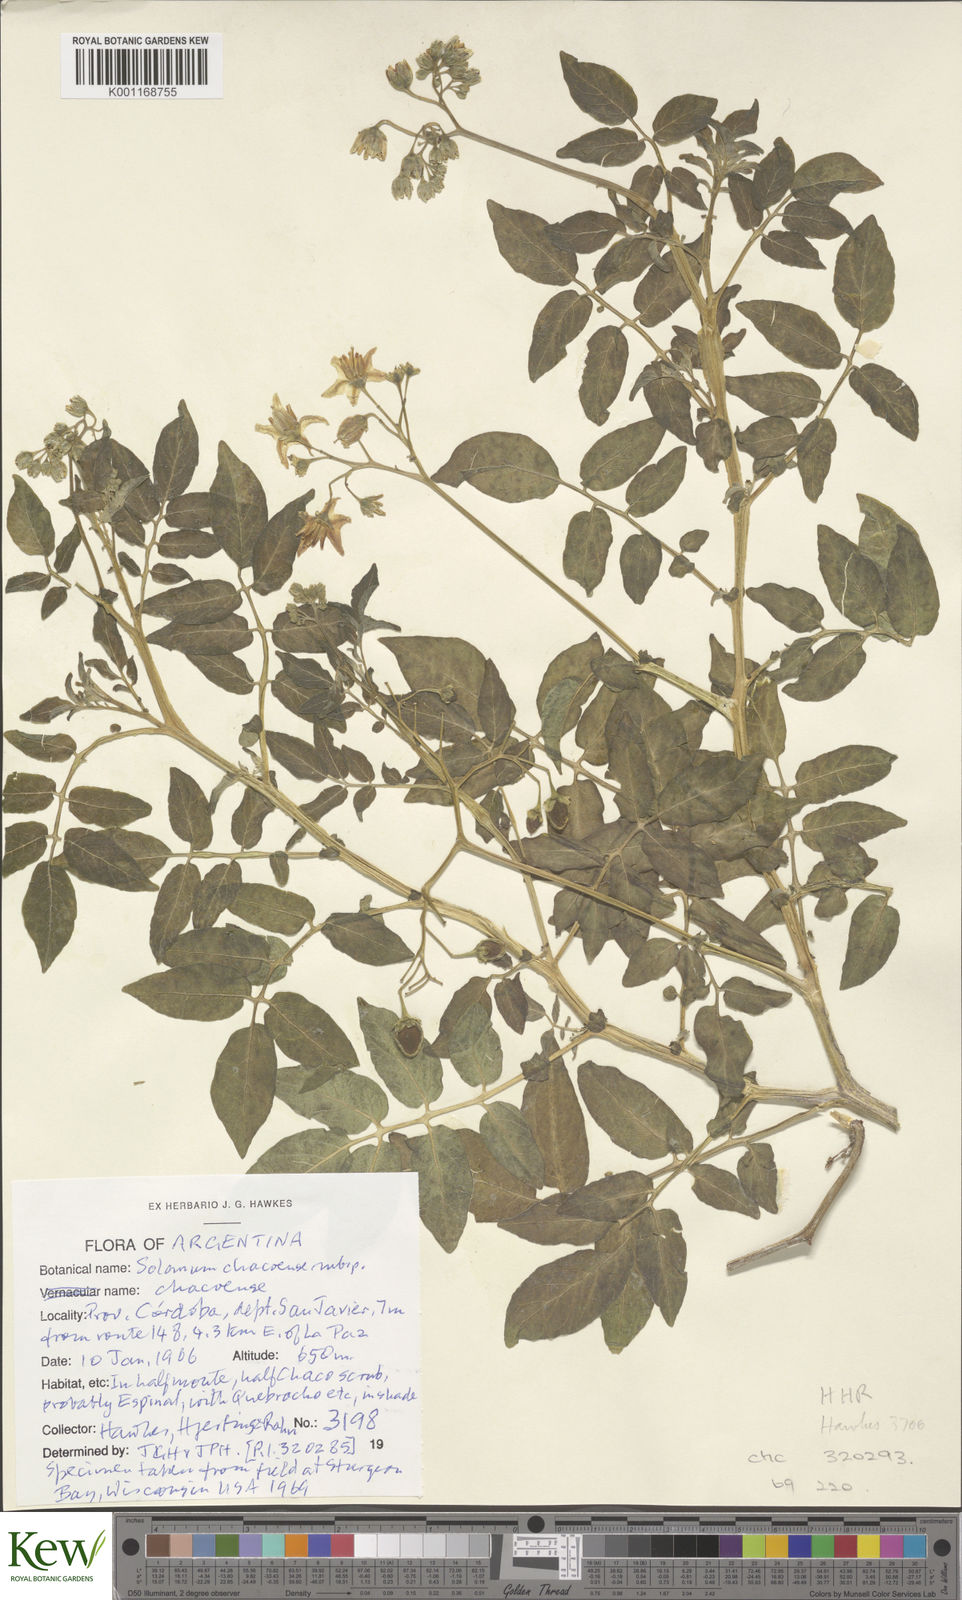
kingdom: Plantae
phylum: Tracheophyta
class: Magnoliopsida
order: Solanales
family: Solanaceae
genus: Solanum
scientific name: Solanum chacoense
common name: Chaco potato
